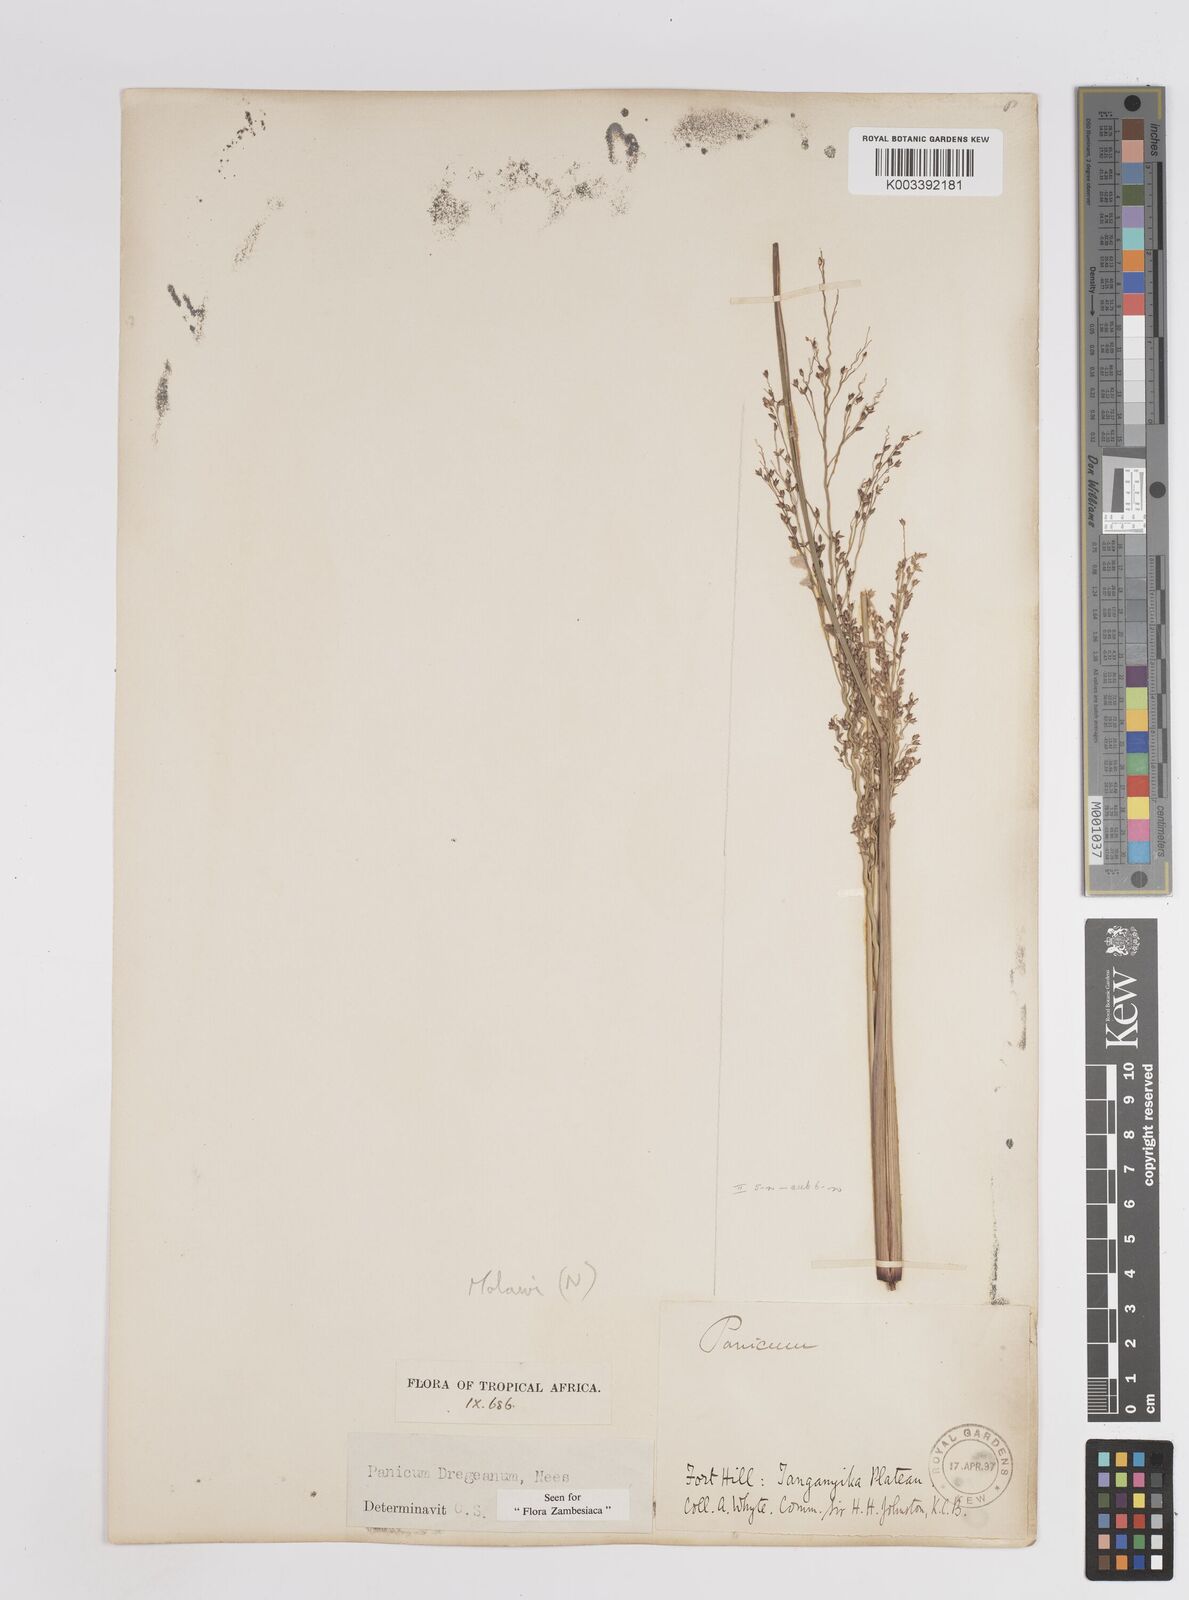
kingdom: Plantae
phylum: Tracheophyta
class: Liliopsida
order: Poales
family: Poaceae
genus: Panicum
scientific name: Panicum dregeanum
